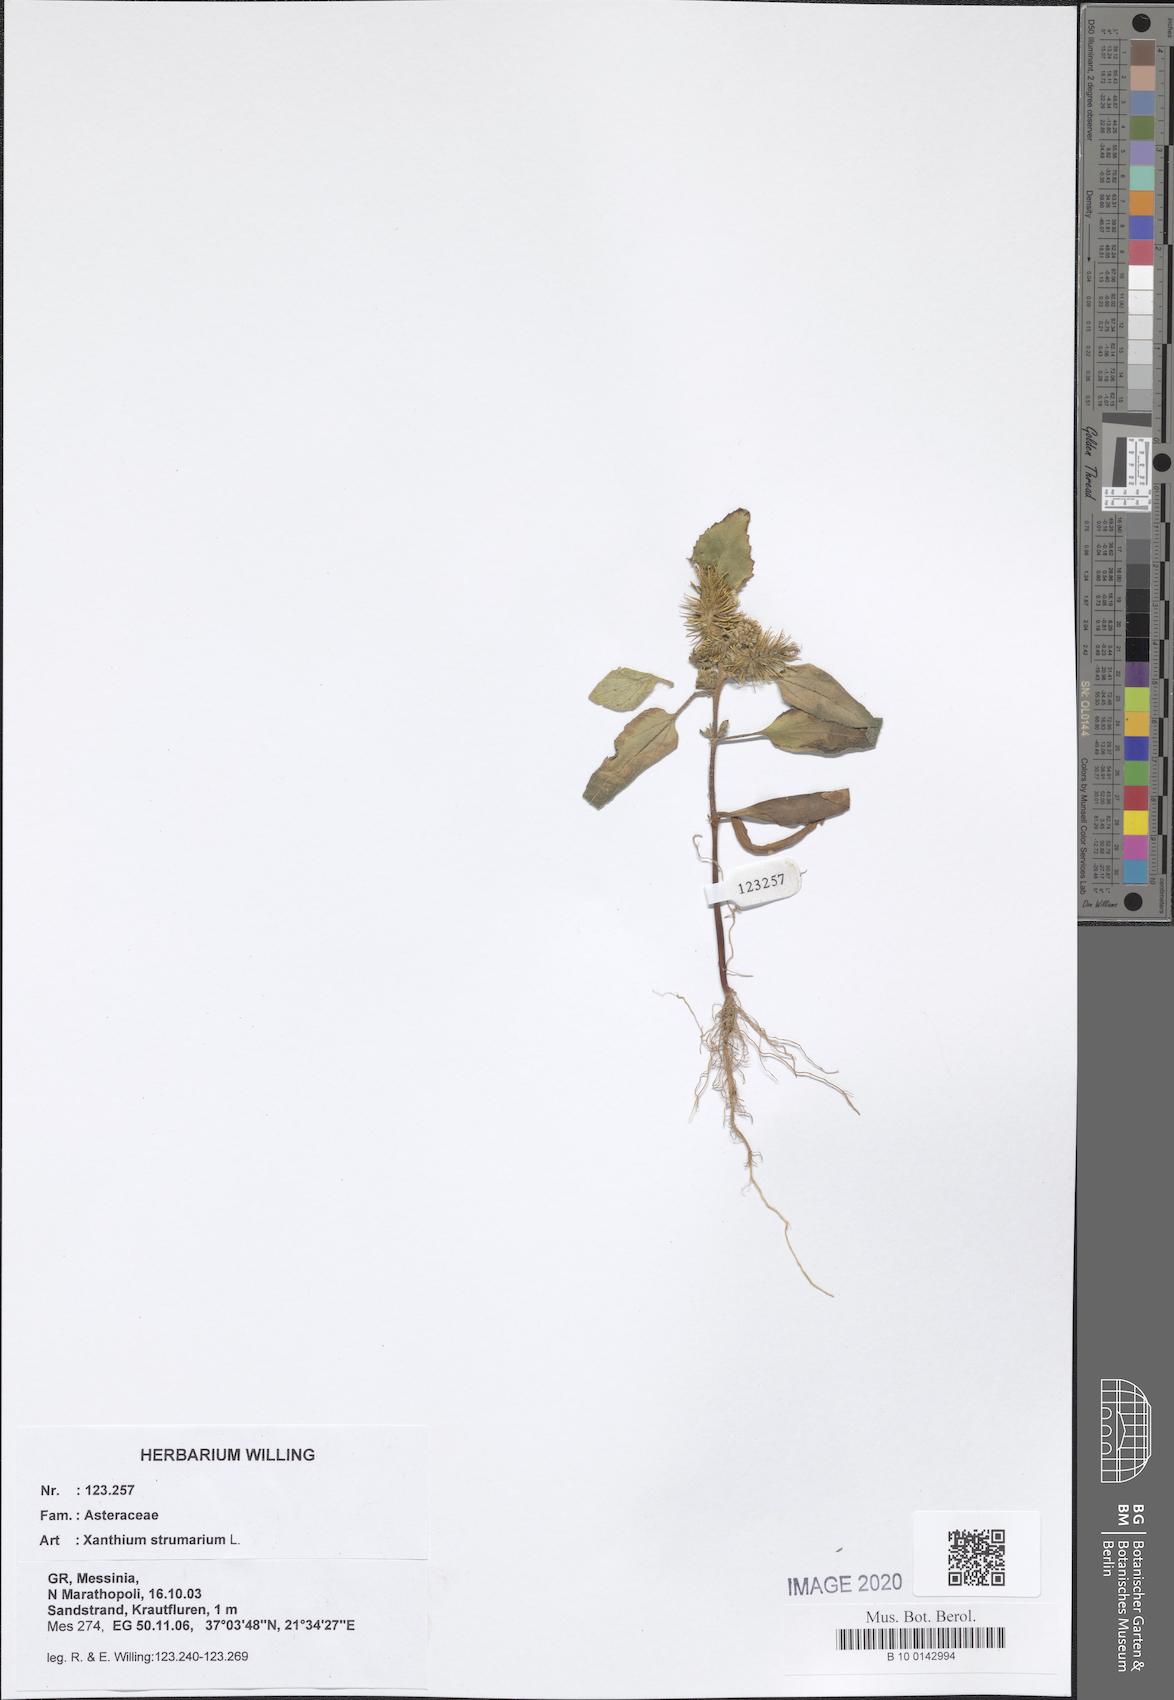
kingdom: Plantae
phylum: Tracheophyta
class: Magnoliopsida
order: Asterales
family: Asteraceae
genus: Xanthium
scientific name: Xanthium strumarium
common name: Rough cocklebur
